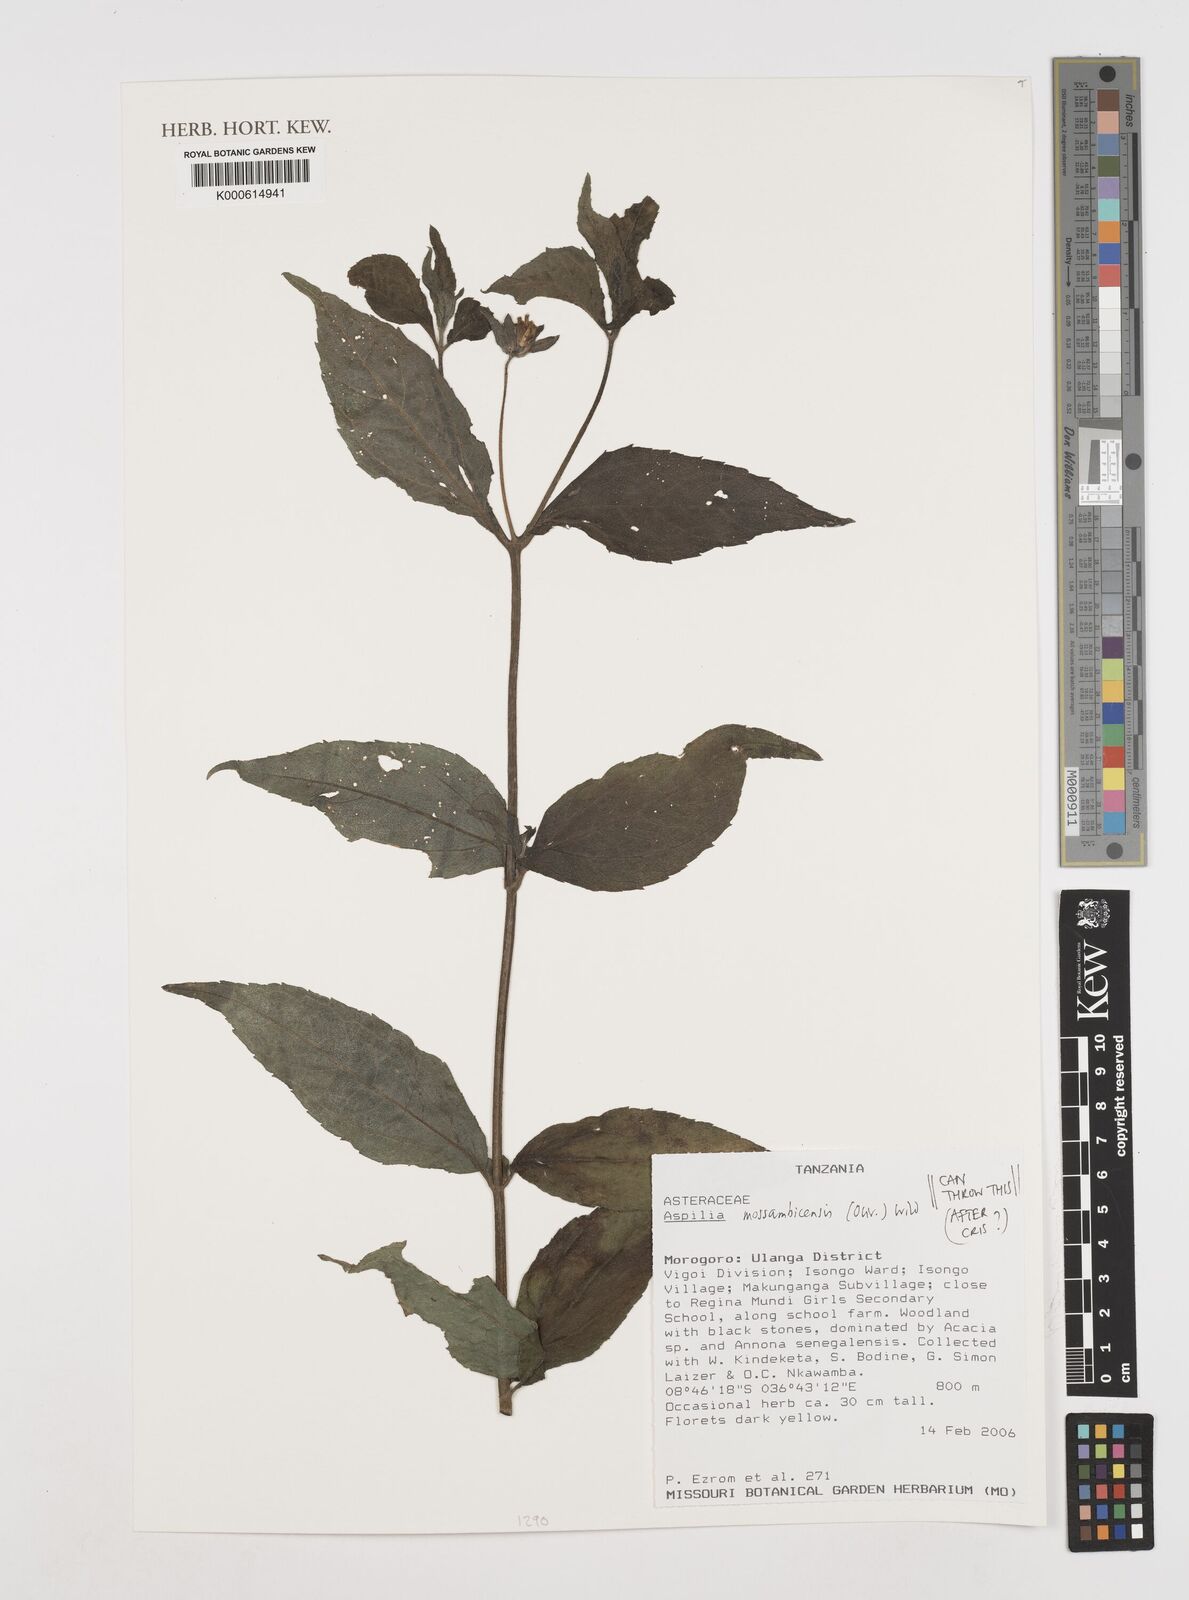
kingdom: Plantae
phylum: Tracheophyta
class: Magnoliopsida
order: Asterales
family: Asteraceae
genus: Aspilia
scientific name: Aspilia mossambicensis
